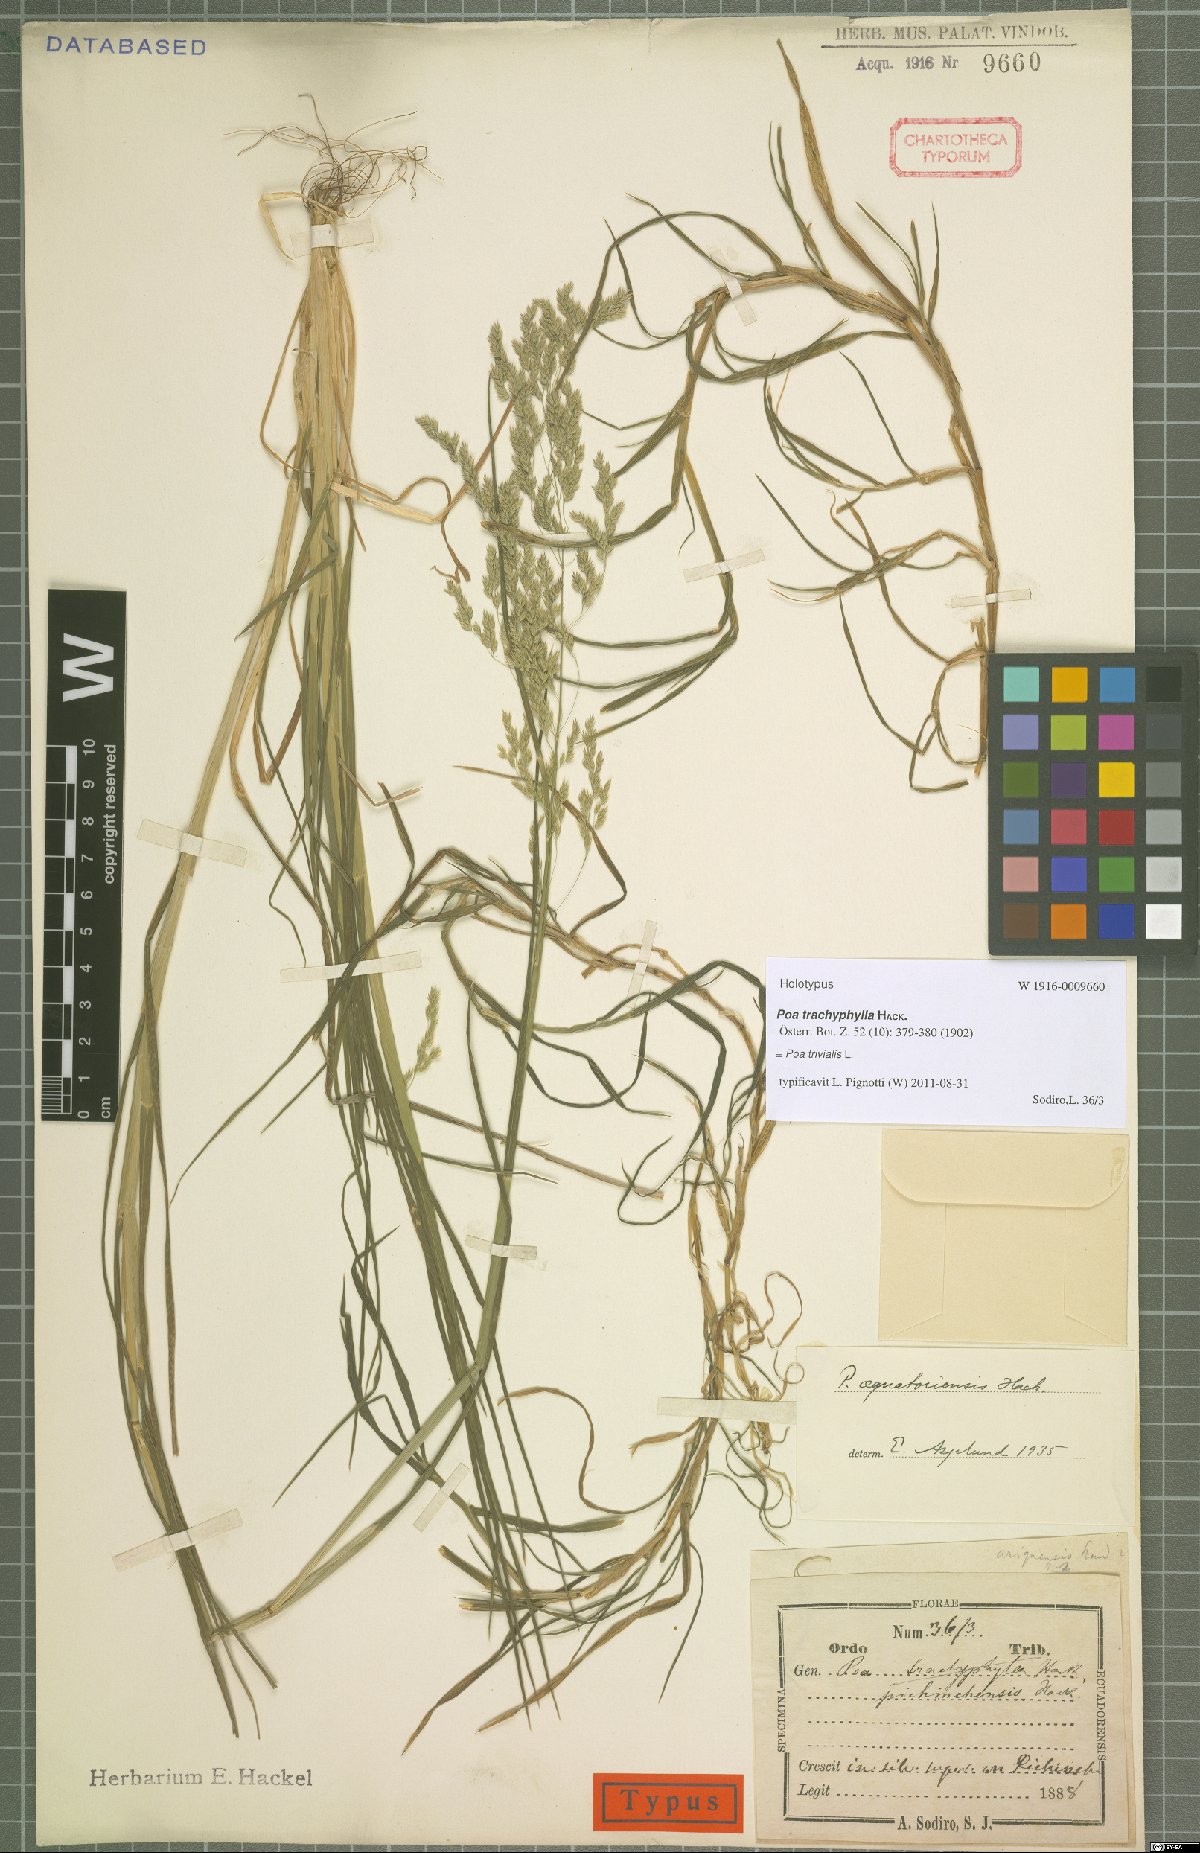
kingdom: Plantae
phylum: Tracheophyta
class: Liliopsida
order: Poales
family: Poaceae
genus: Poa
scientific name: Poa trivialis
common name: Rough bluegrass
